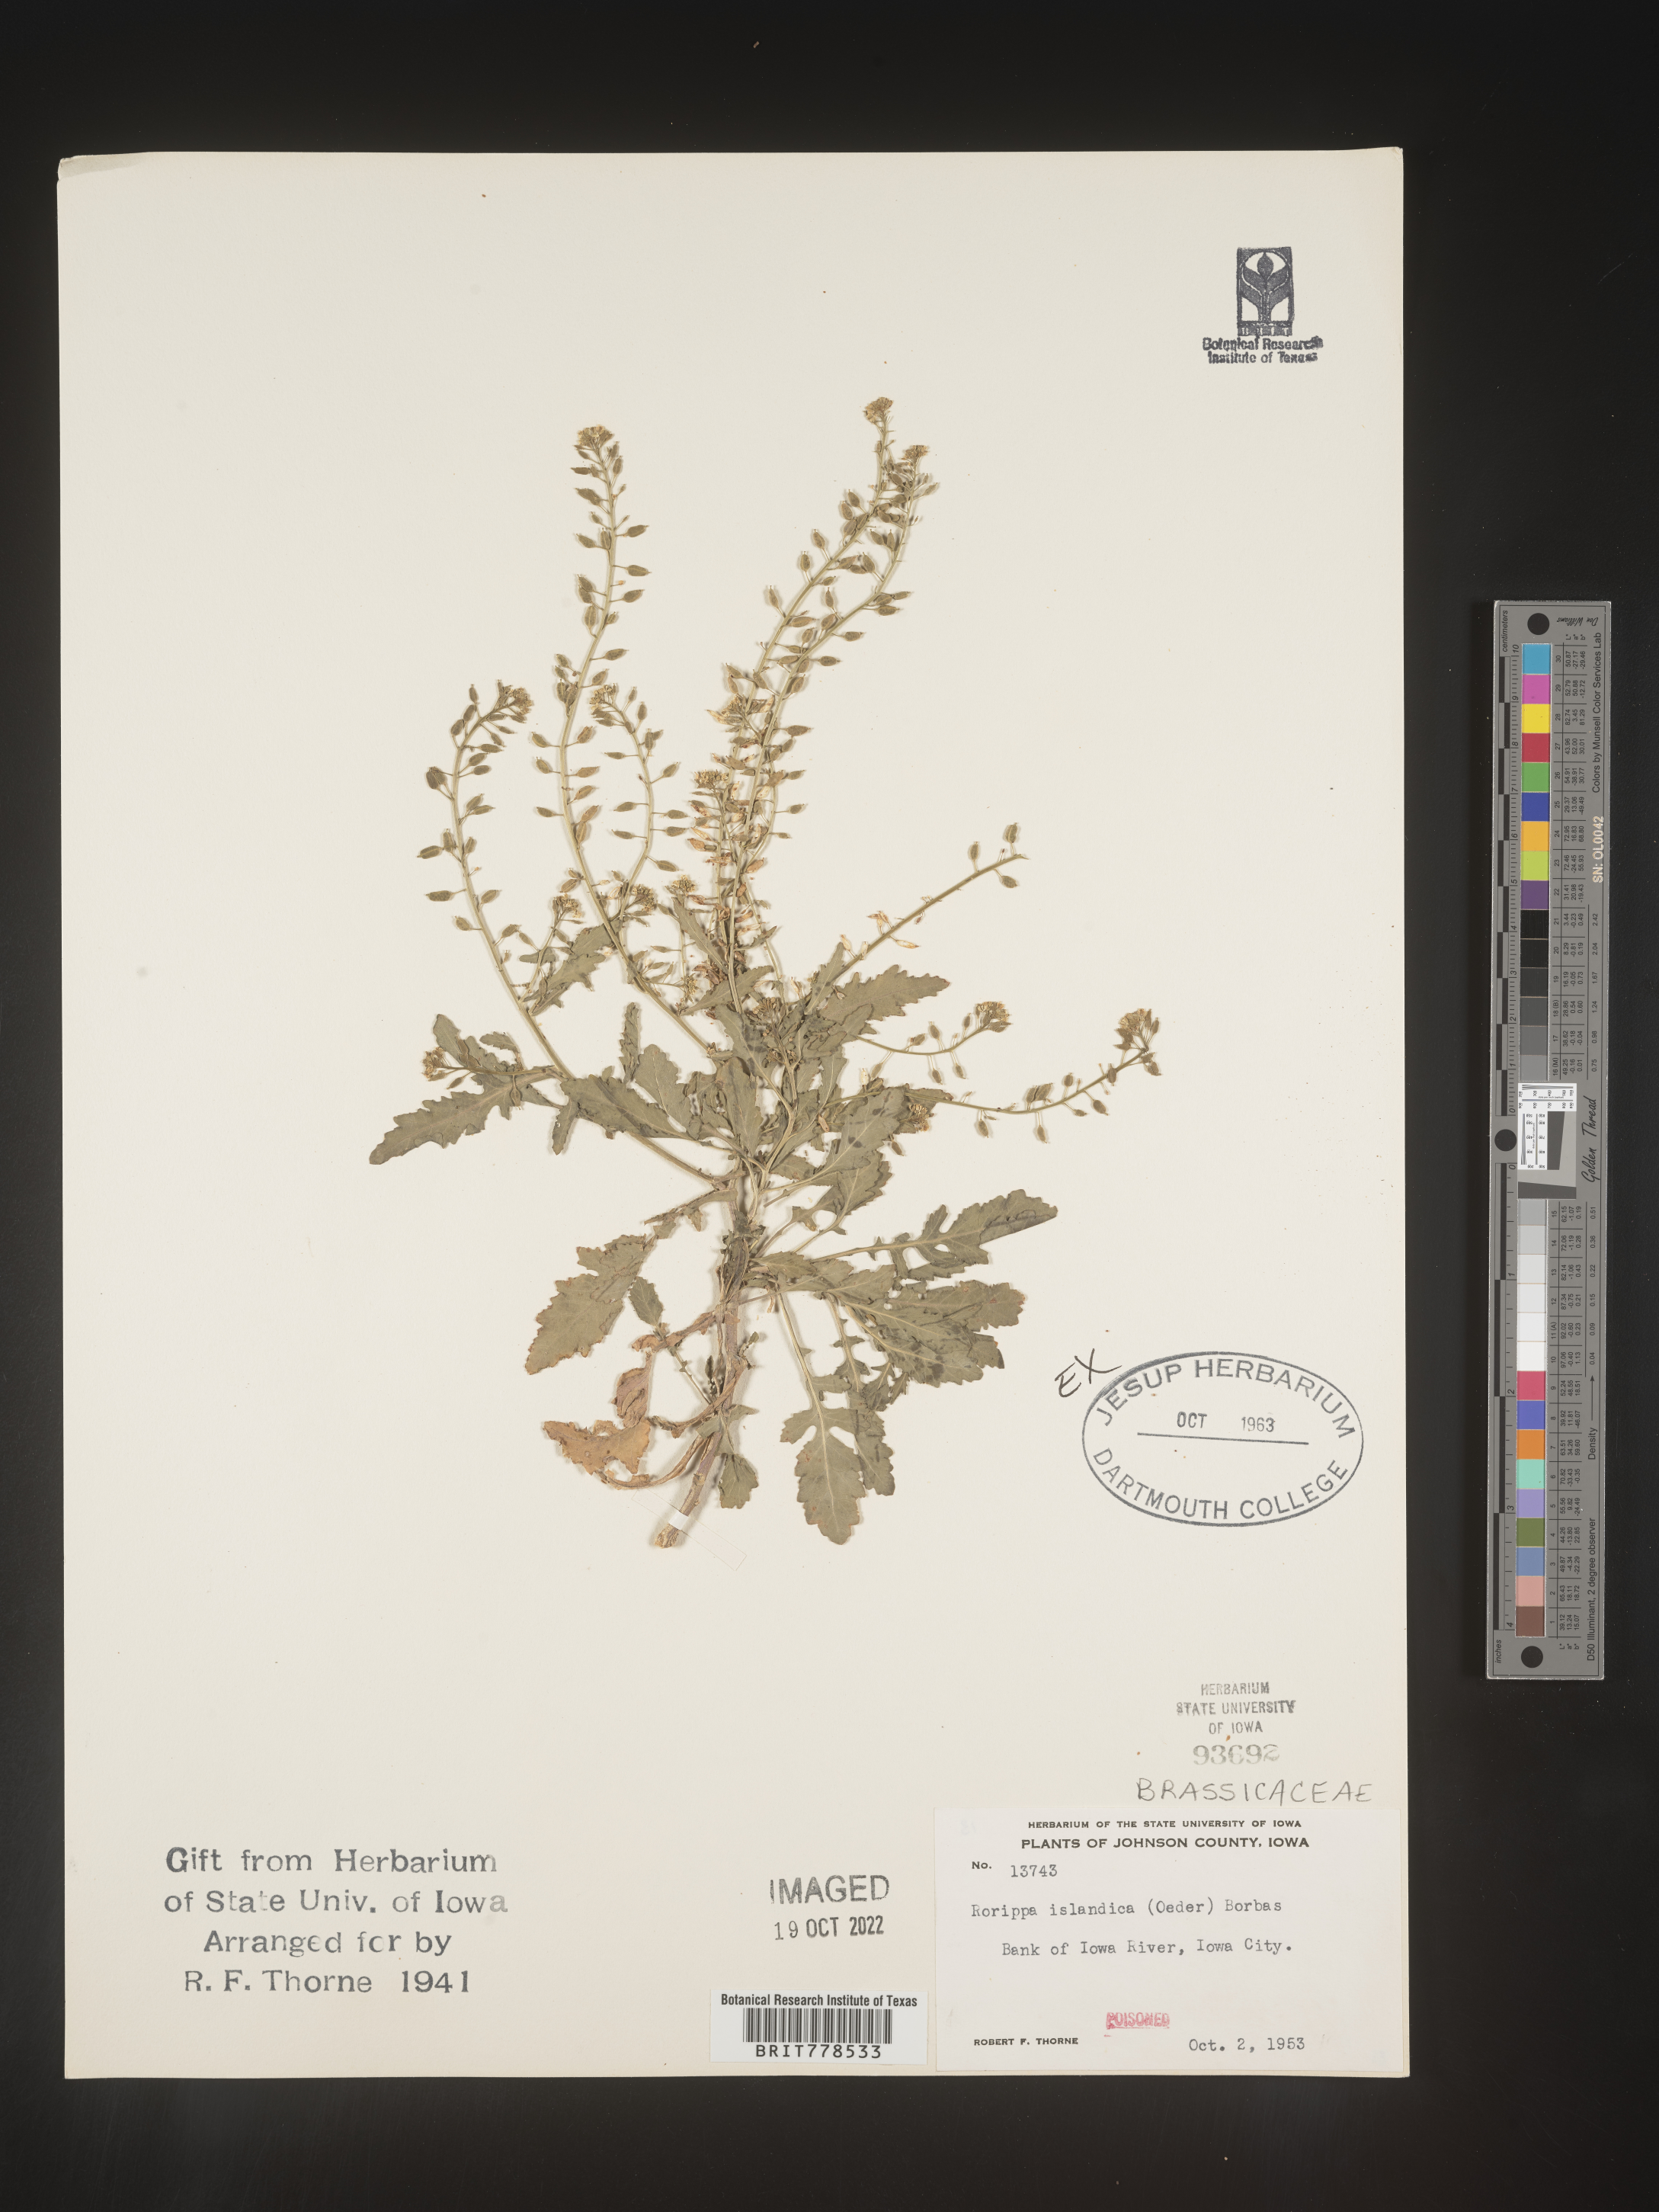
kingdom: Plantae
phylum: Tracheophyta
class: Magnoliopsida
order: Brassicales
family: Brassicaceae
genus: Rorippa
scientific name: Rorippa
